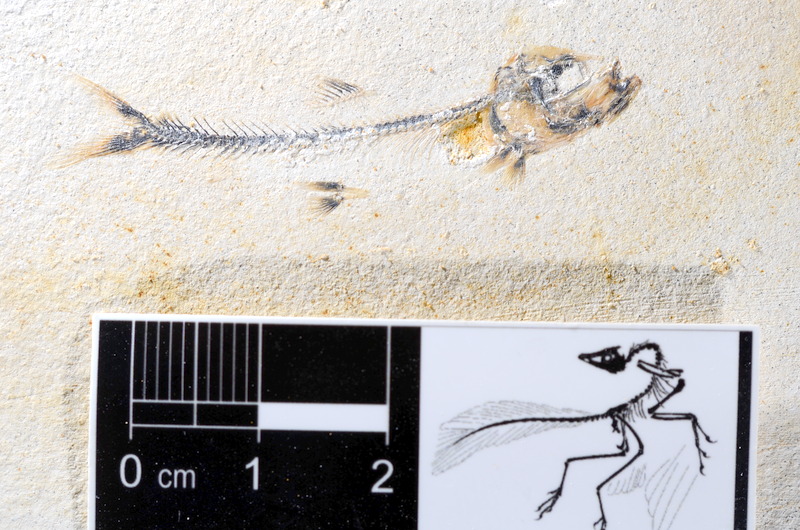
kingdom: Animalia
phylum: Chordata
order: Salmoniformes
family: Orthogonikleithridae
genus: Orthogonikleithrus
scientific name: Orthogonikleithrus hoelli
